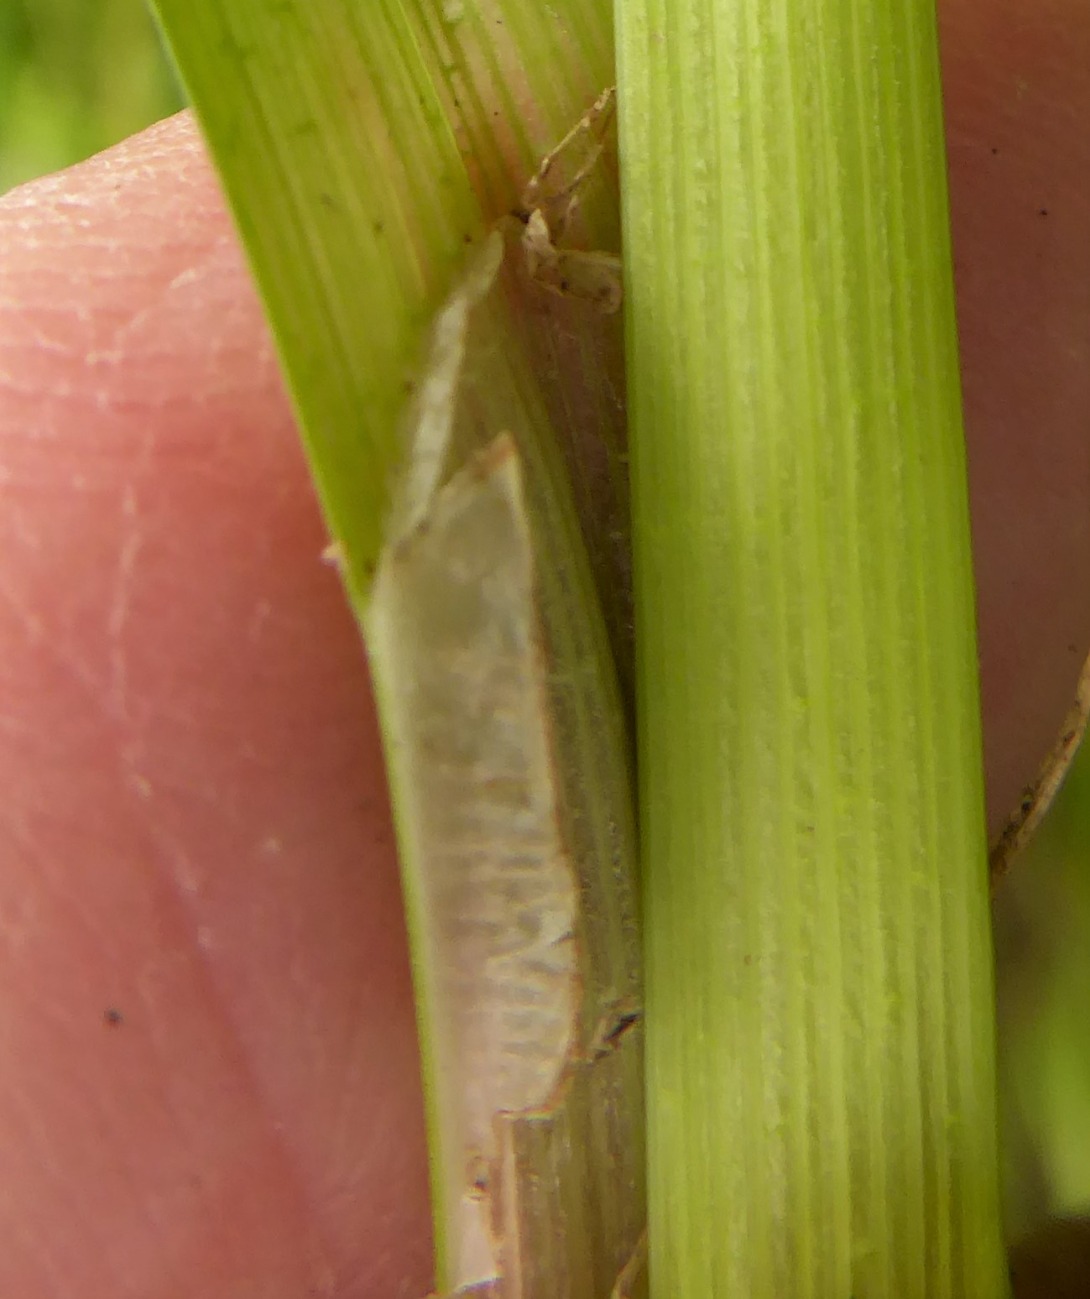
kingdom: Plantae
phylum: Tracheophyta
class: Liliopsida
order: Poales
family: Cyperaceae
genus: Carex
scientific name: Carex vulpina
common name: Ræve-star
